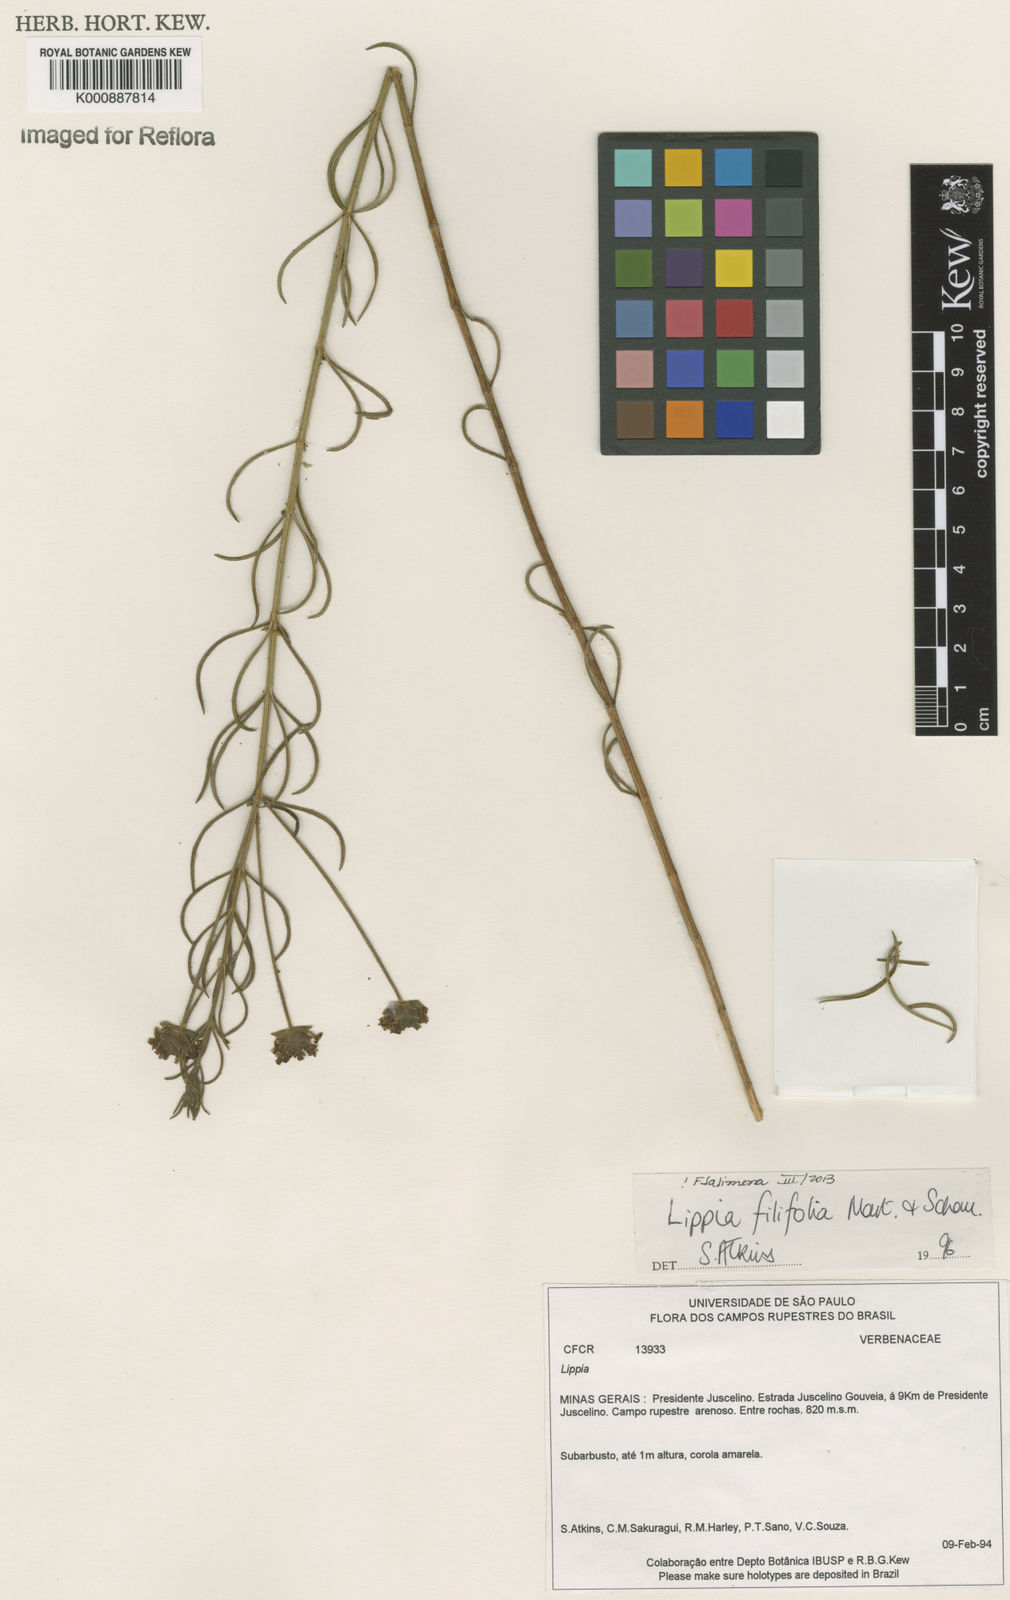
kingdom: Plantae
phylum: Tracheophyta
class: Magnoliopsida
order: Lamiales
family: Verbenaceae
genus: Lippia
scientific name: Lippia filifolia
